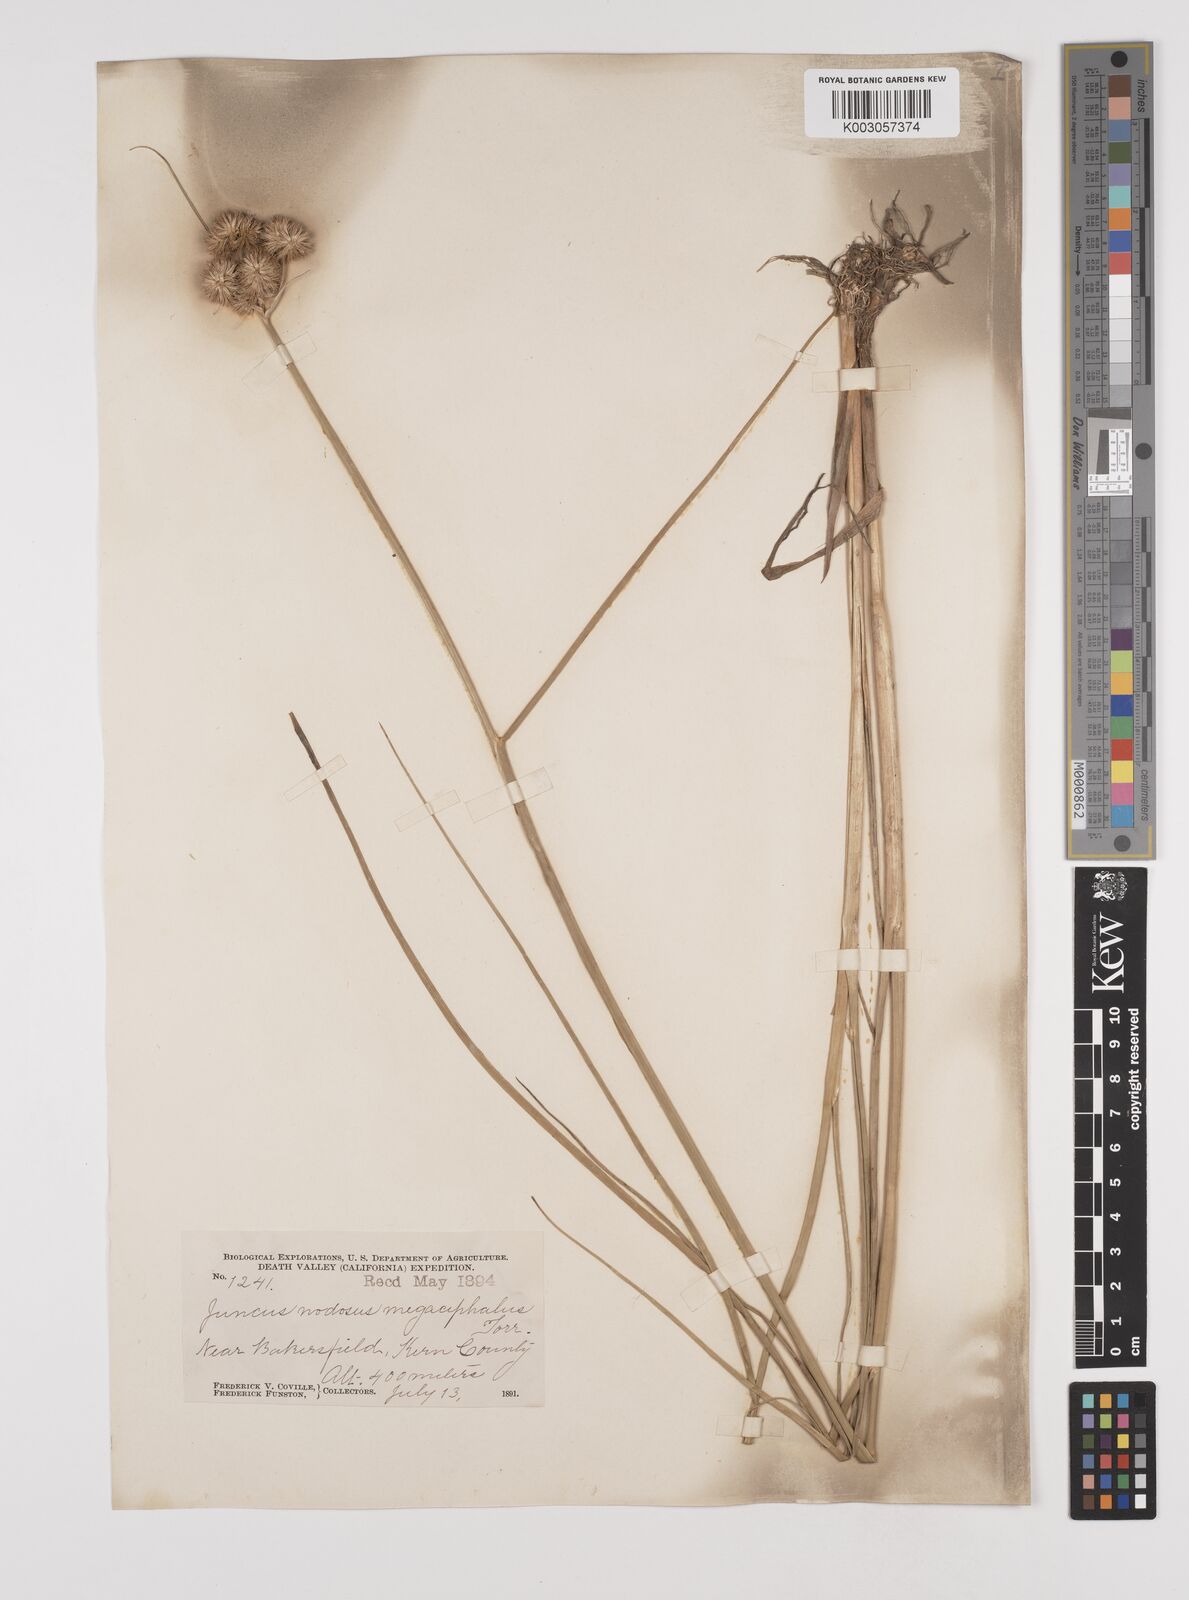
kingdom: Plantae
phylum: Tracheophyta
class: Liliopsida
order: Poales
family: Juncaceae
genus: Juncus
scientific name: Juncus nodosus
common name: Knotted rush
